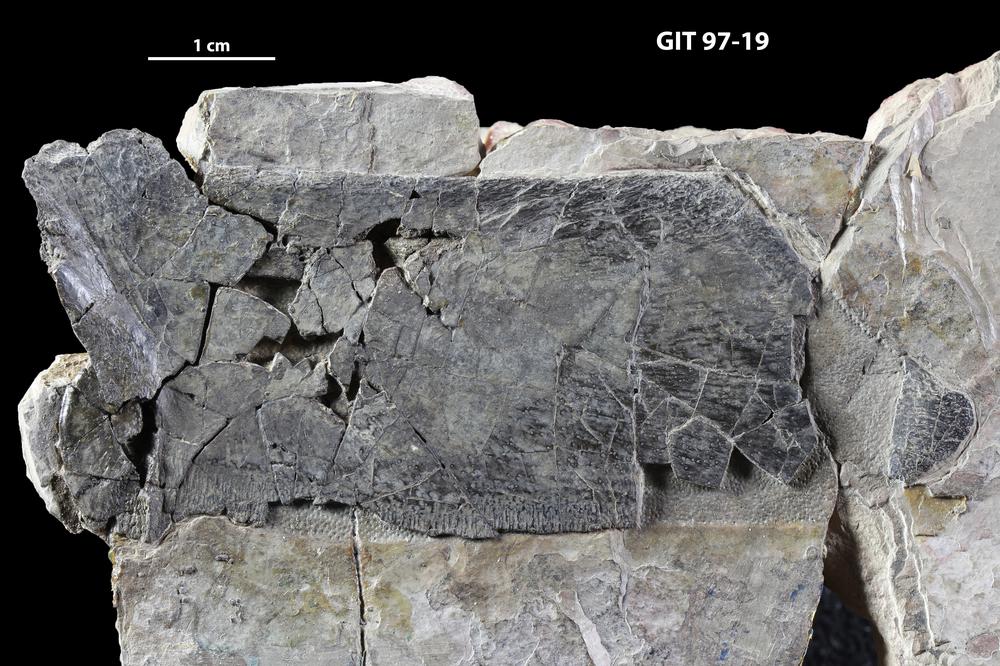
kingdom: Animalia
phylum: Chordata
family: Holonematidae
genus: Holonema
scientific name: Holonema
